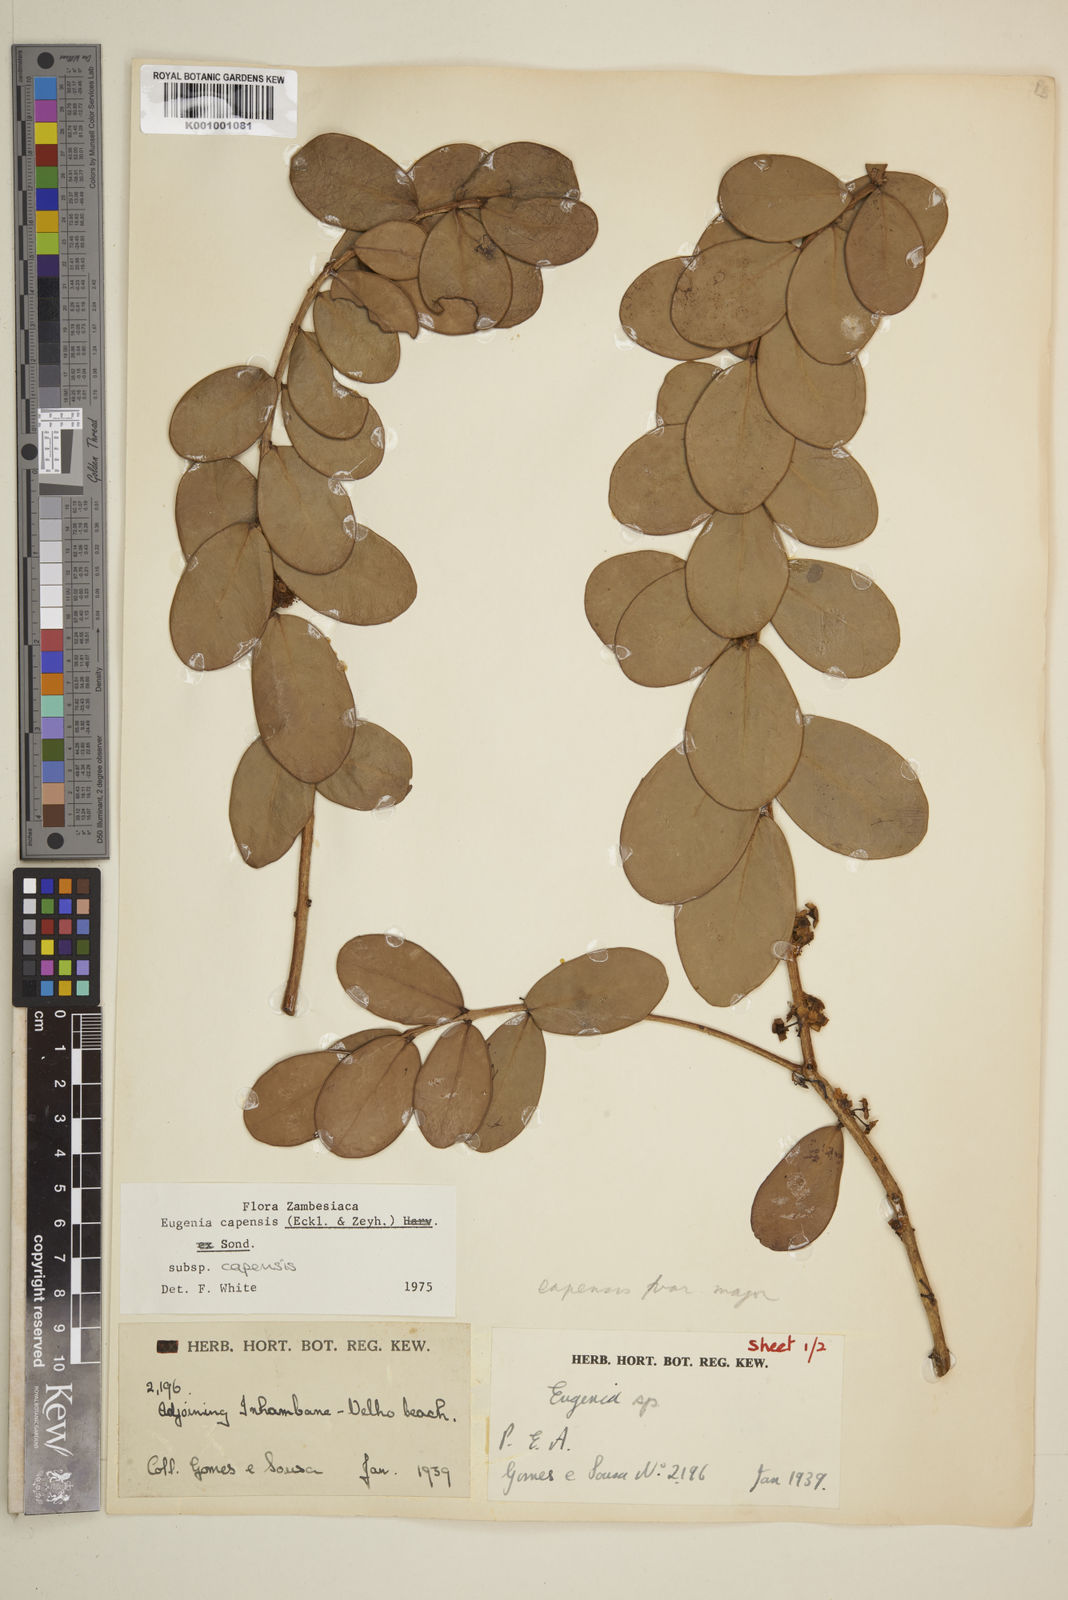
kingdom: Plantae
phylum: Tracheophyta
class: Magnoliopsida
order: Myrtales
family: Myrtaceae
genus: Eugenia
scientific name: Eugenia capensis
